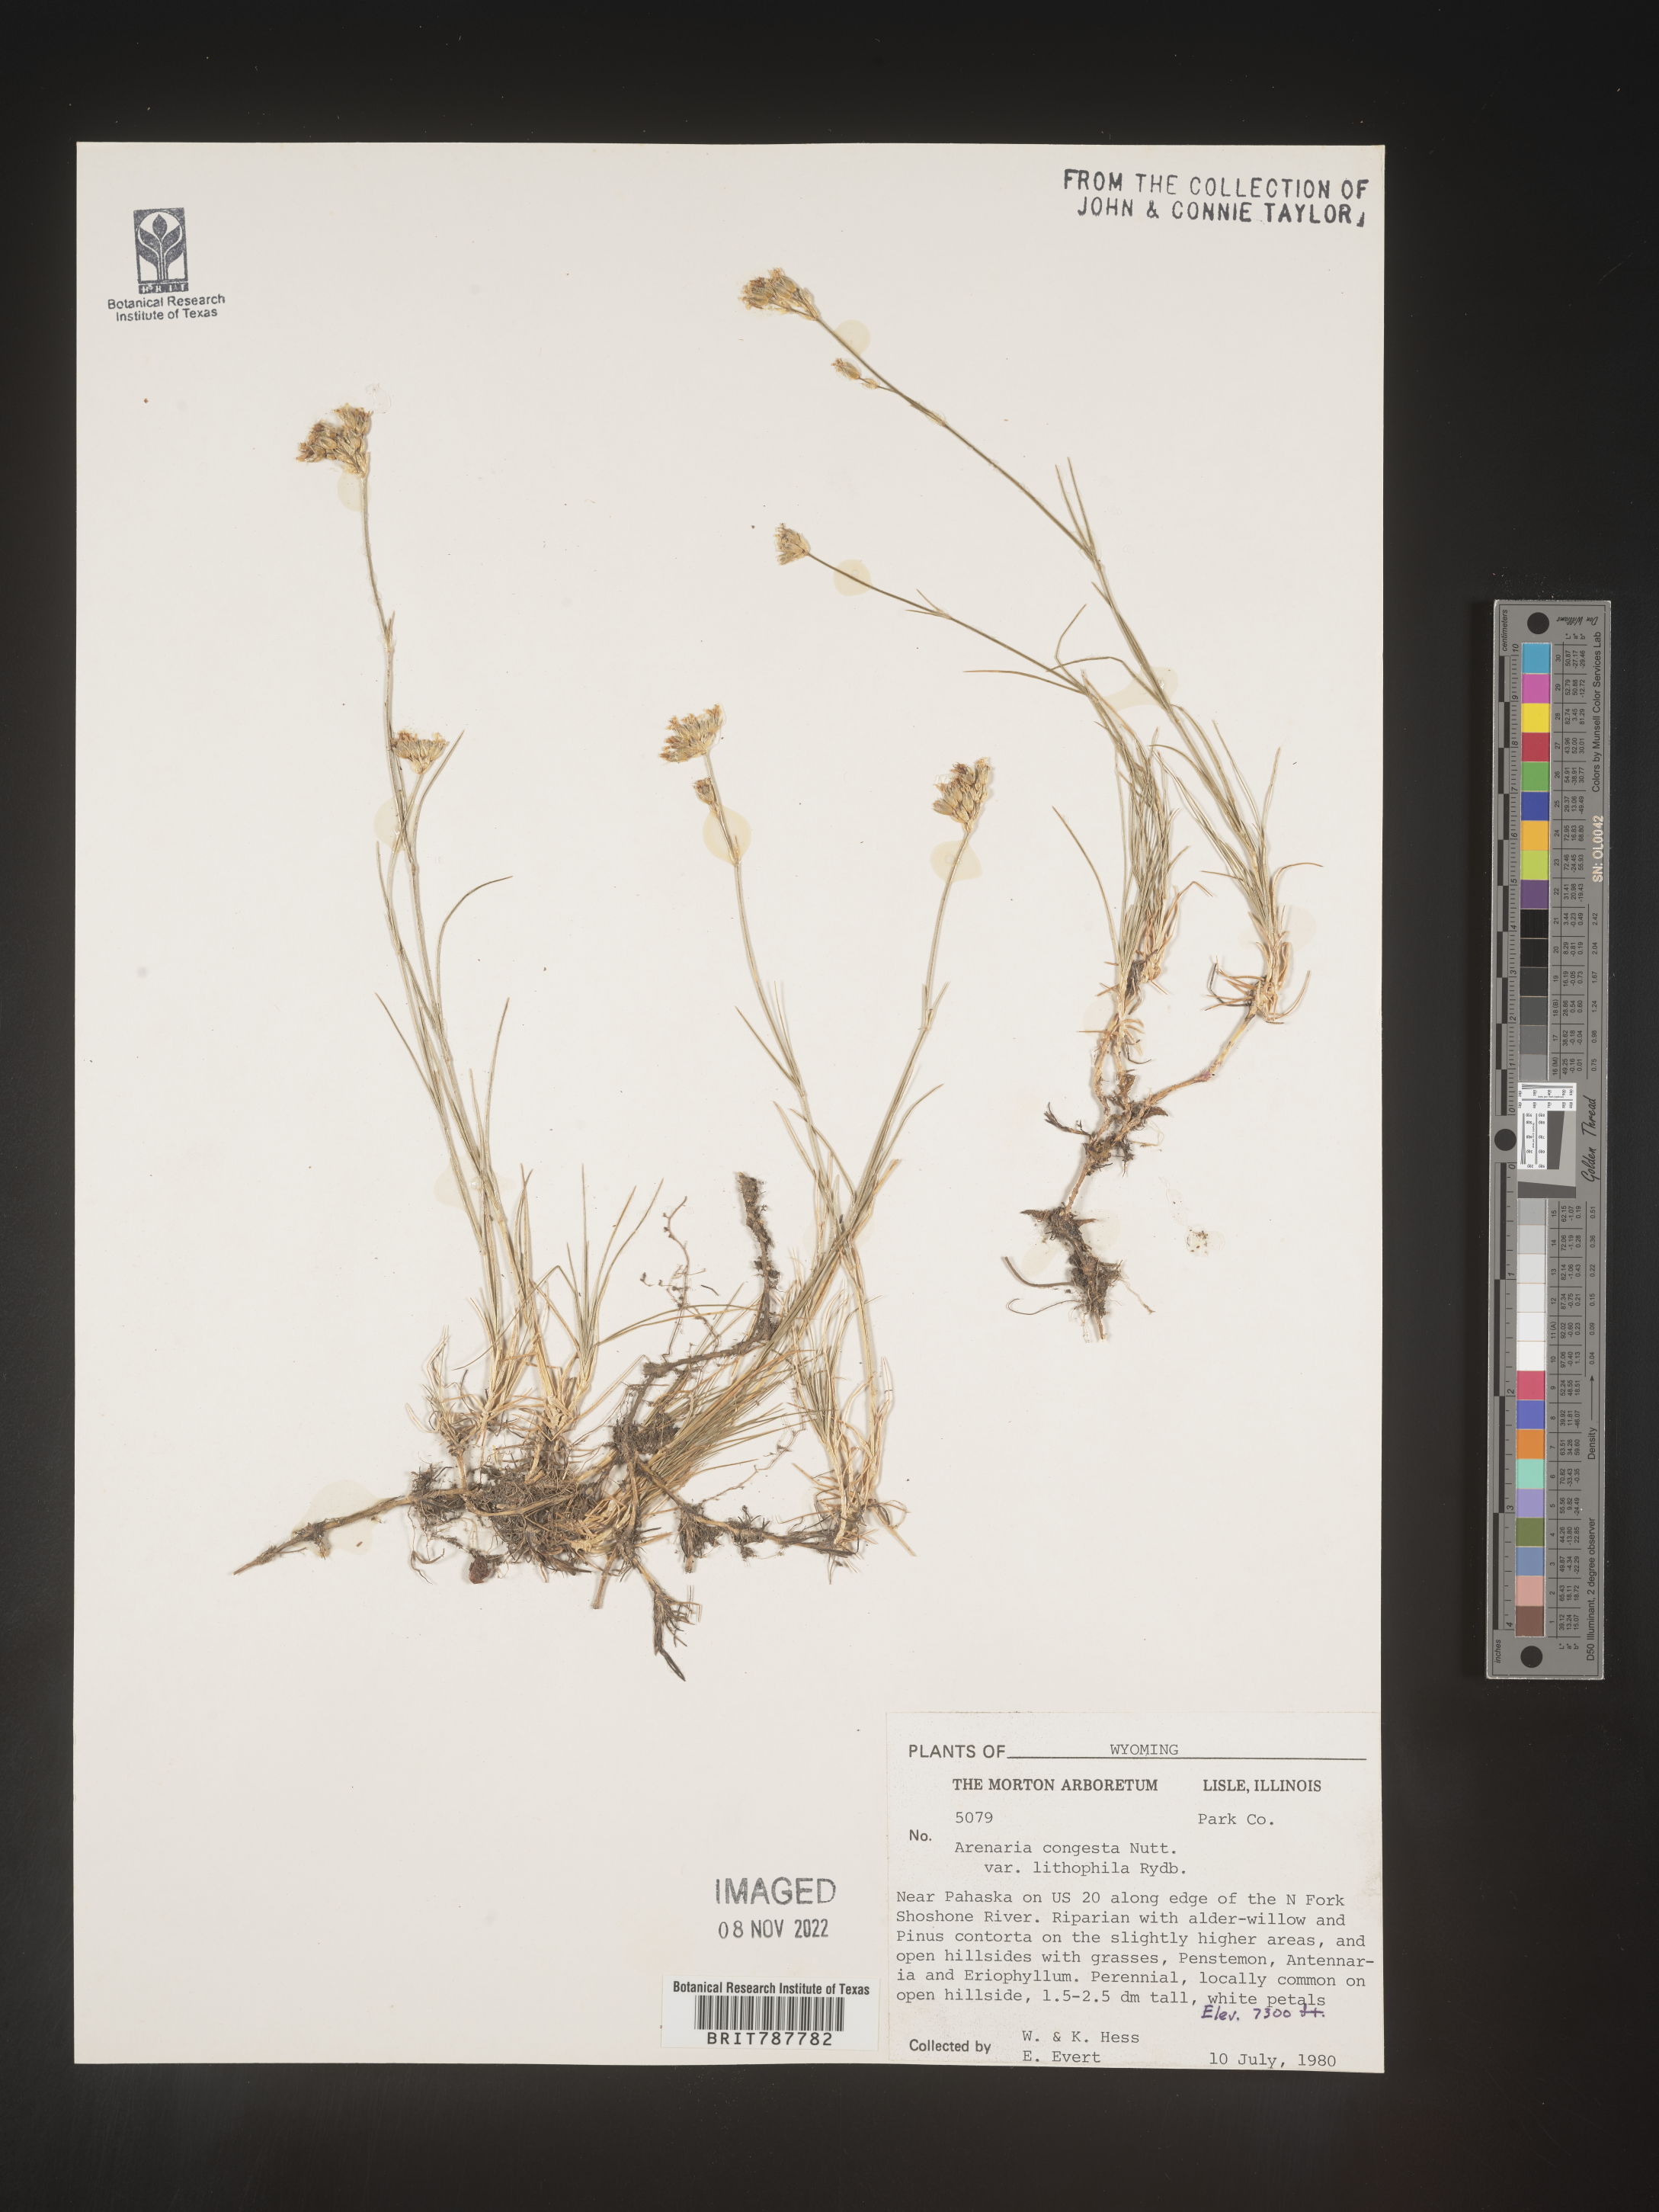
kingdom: Plantae
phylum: Tracheophyta
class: Magnoliopsida
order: Caryophyllales
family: Caryophyllaceae
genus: Eremogone
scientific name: Eremogone congesta
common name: Ballhead sandwort
